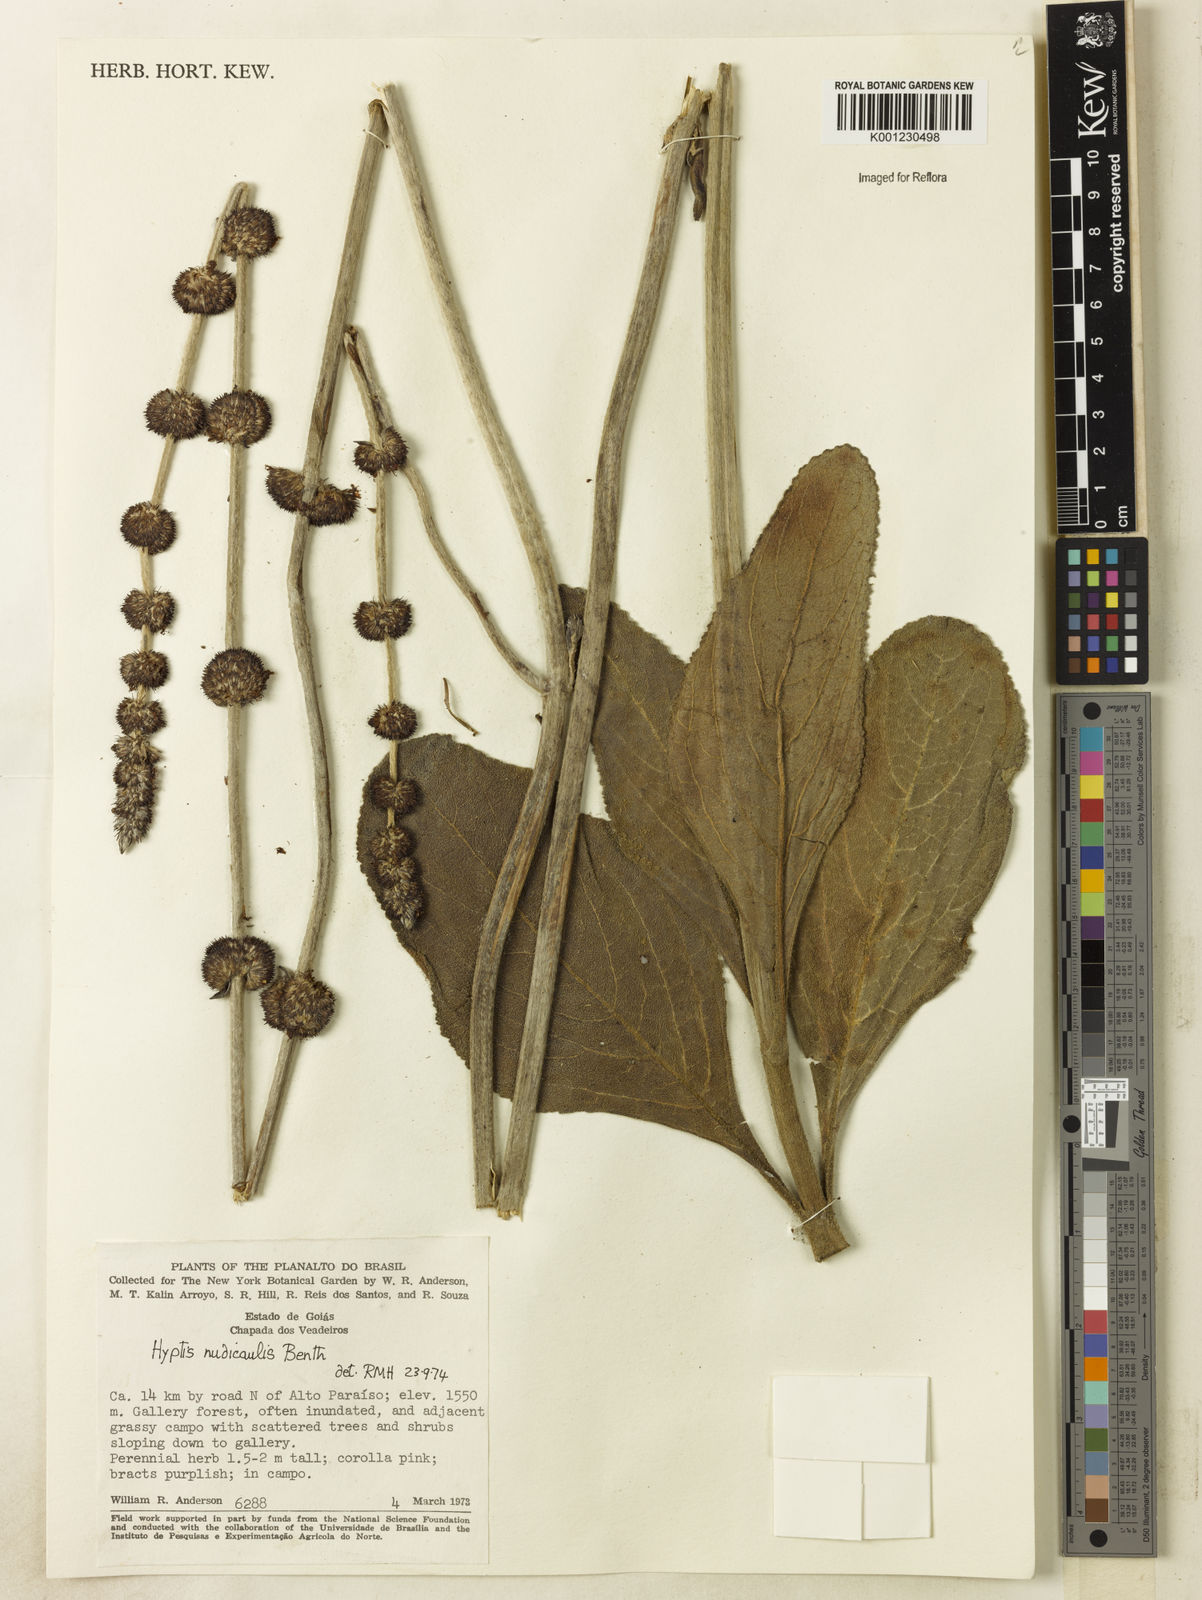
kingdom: Plantae
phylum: Tracheophyta
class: Magnoliopsida
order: Lamiales
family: Lamiaceae
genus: Hyptis
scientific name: Hyptis nudicaulis
